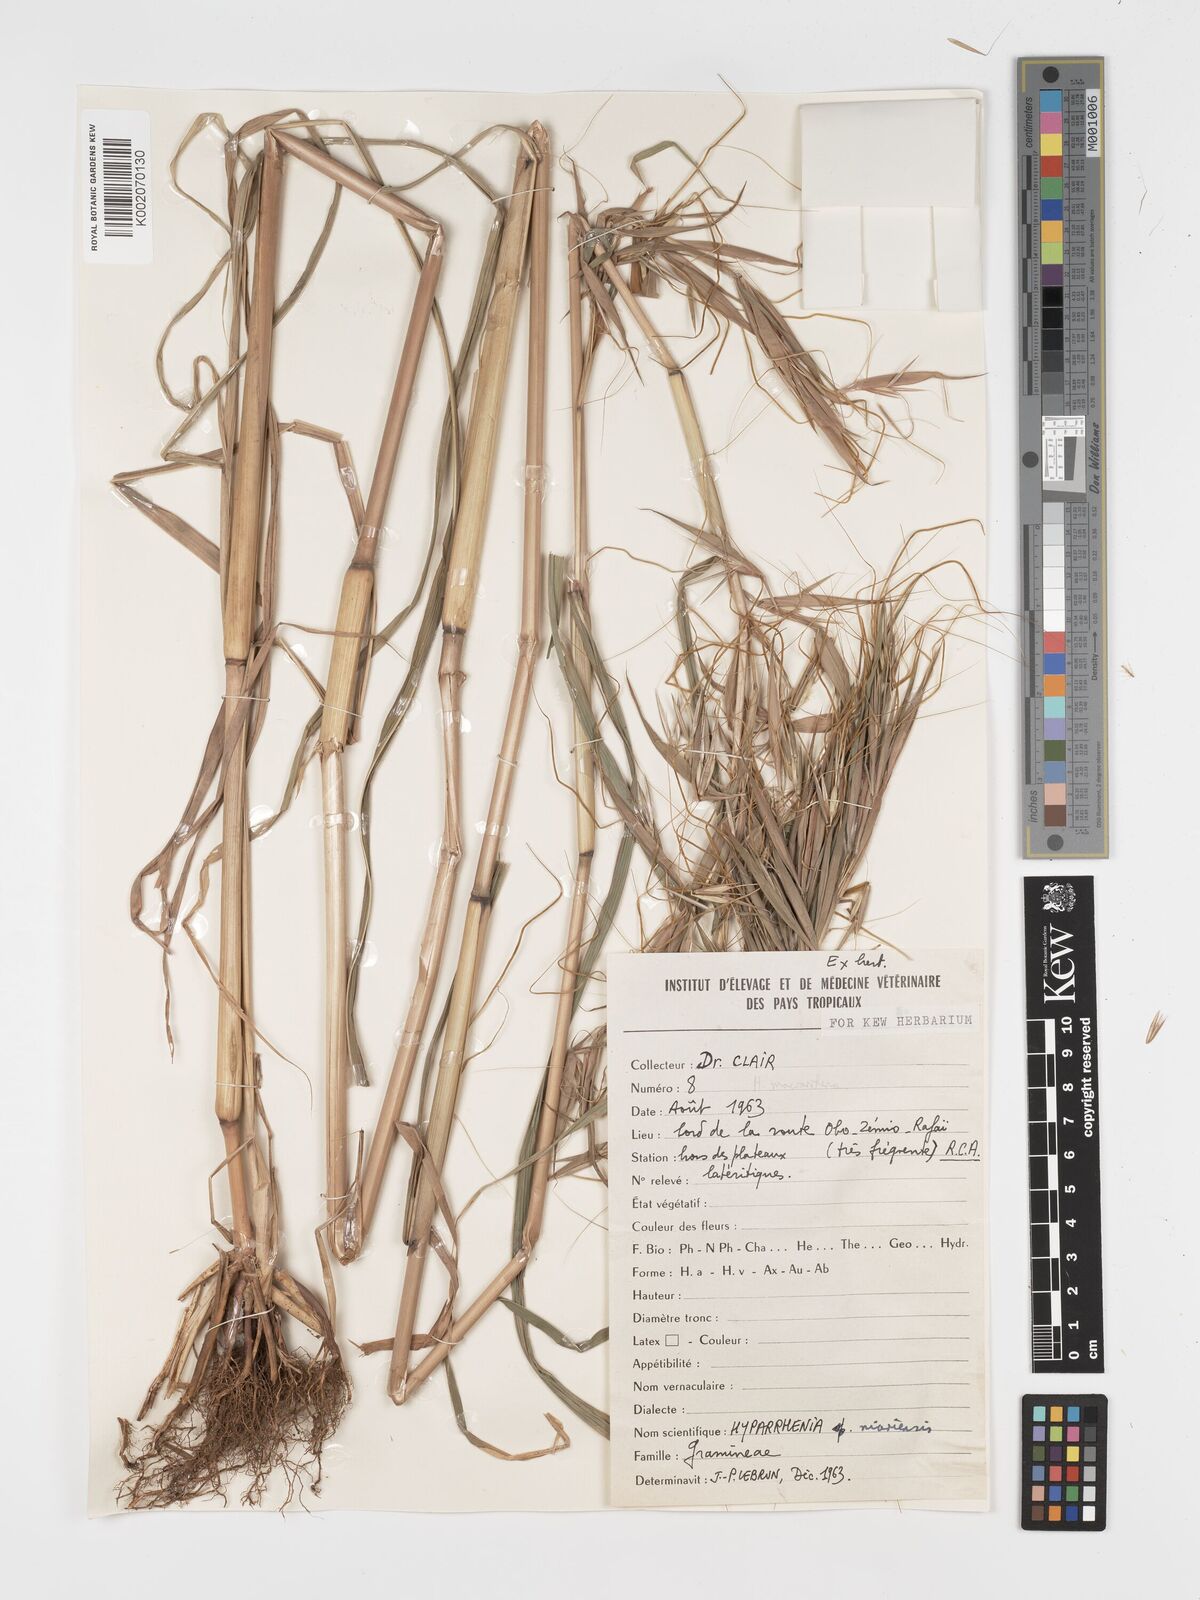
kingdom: Plantae
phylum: Tracheophyta
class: Liliopsida
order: Poales
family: Poaceae
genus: Hyparrhenia
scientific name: Hyparrhenia niariensis
